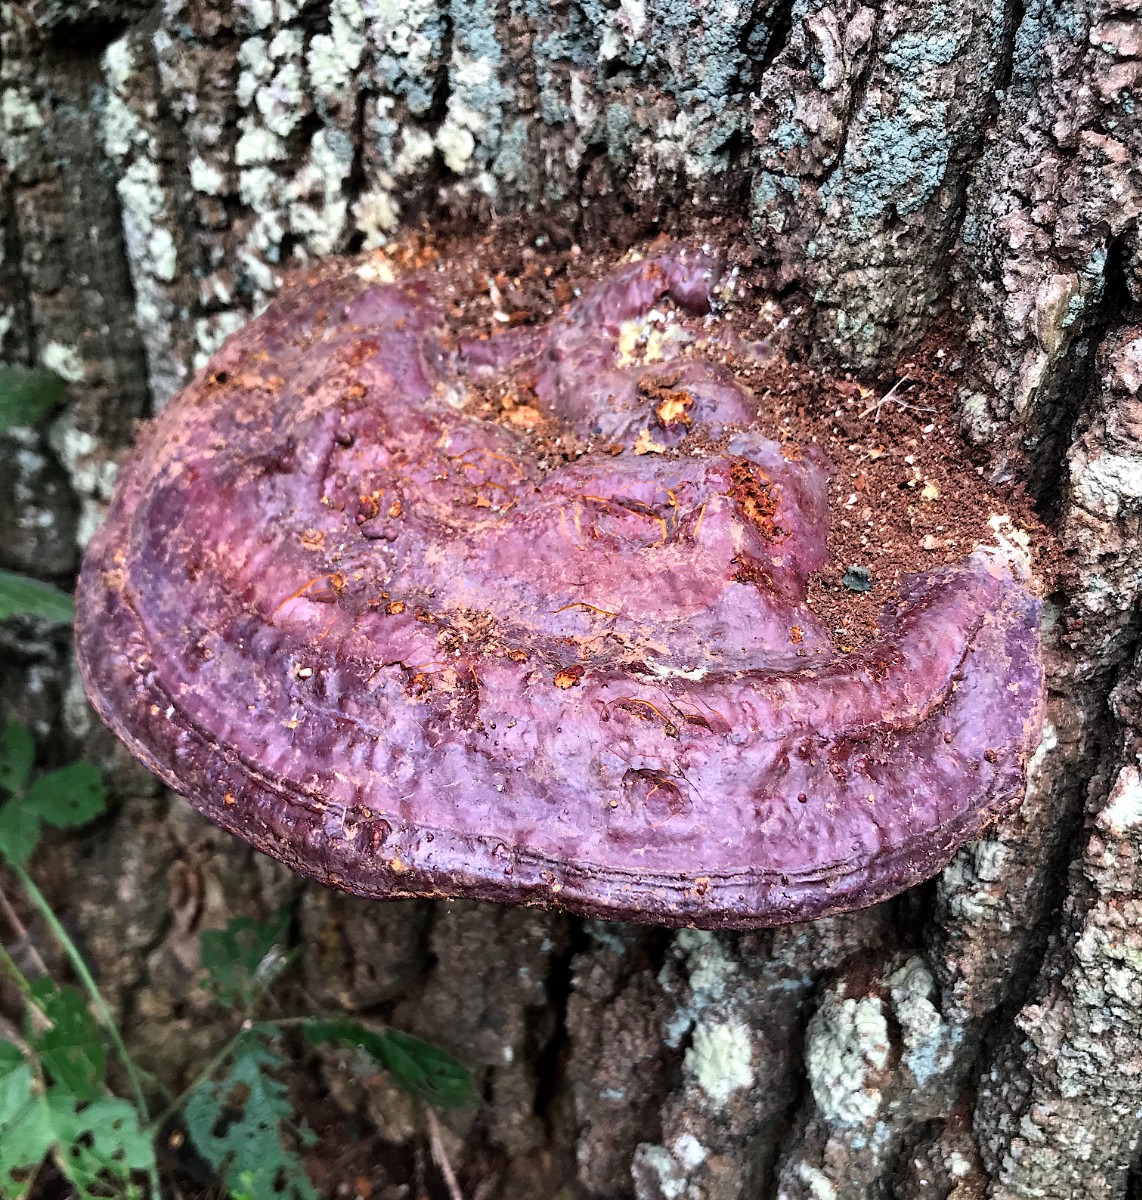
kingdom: Fungi
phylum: Basidiomycota
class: Agaricomycetes
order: Polyporales
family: Polyporaceae
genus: Ganoderma
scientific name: Ganoderma resinaceum
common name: gyldenbrun lakporesvamp
